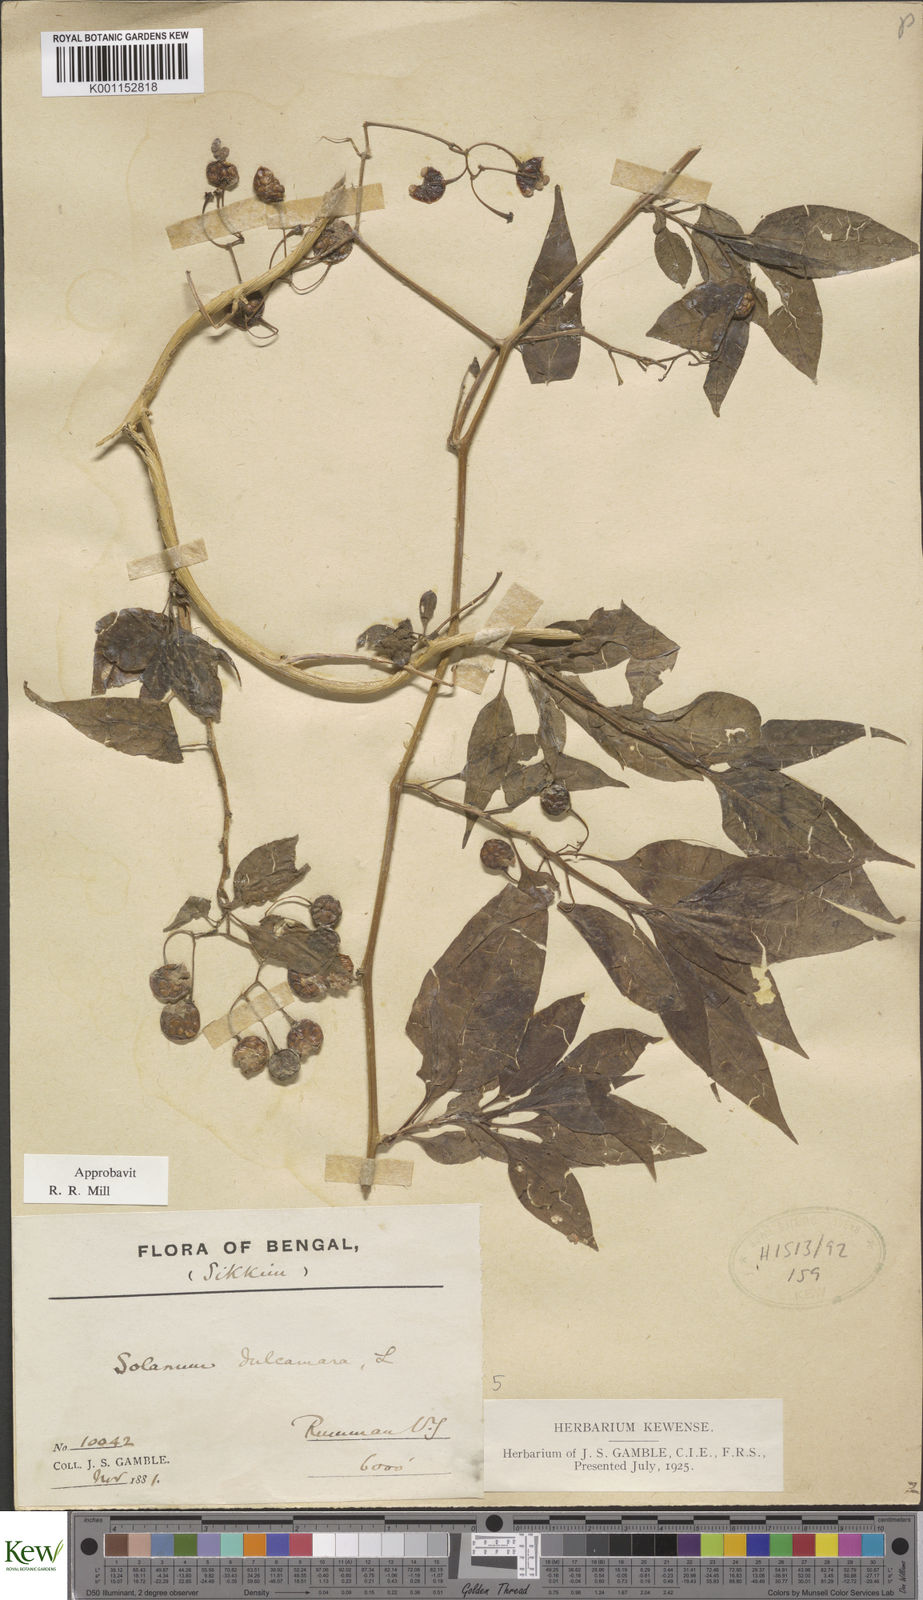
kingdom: Plantae
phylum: Tracheophyta
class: Magnoliopsida
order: Solanales
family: Solanaceae
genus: Solanum
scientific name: Solanum spirale
